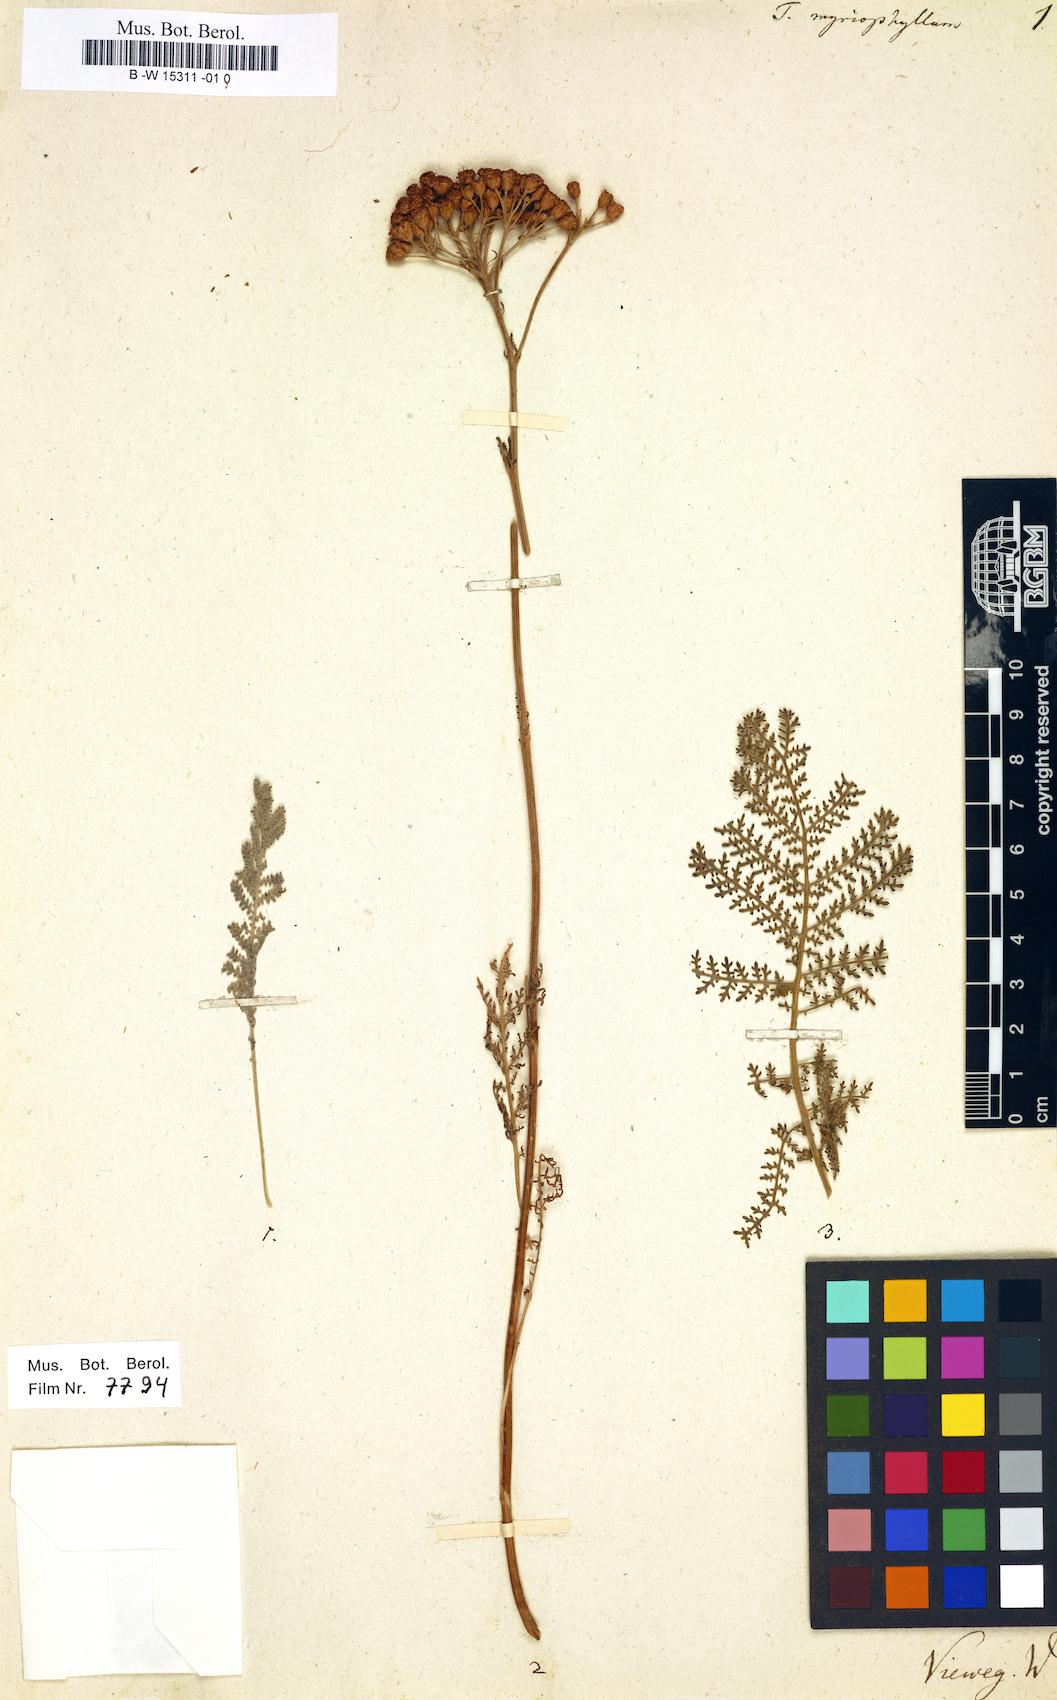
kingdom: Plantae
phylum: Tracheophyta
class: Magnoliopsida
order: Asterales
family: Asteraceae
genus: Vogtia
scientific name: Vogtia microphylla
